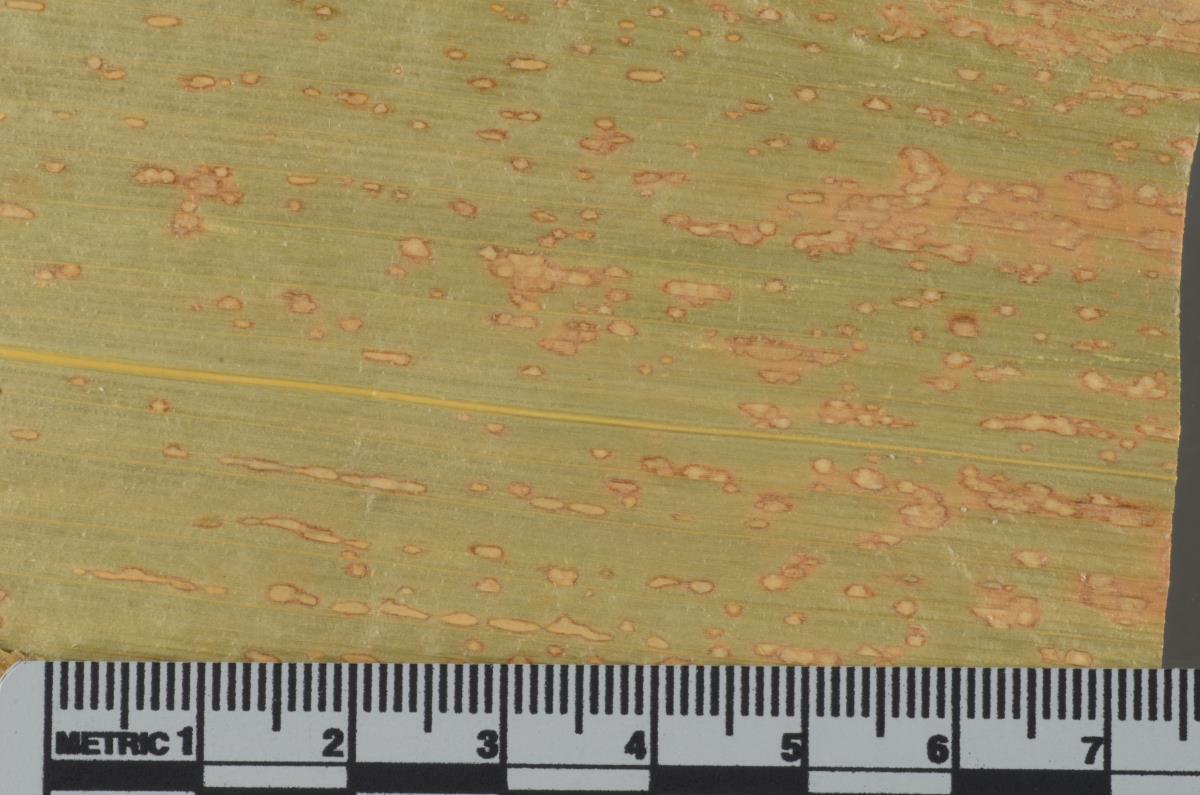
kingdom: Fungi
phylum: Ascomycota
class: Dothideomycetes
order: Dothideales
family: Saccotheciaceae
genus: Kabatiella
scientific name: Kabatiella zeae
